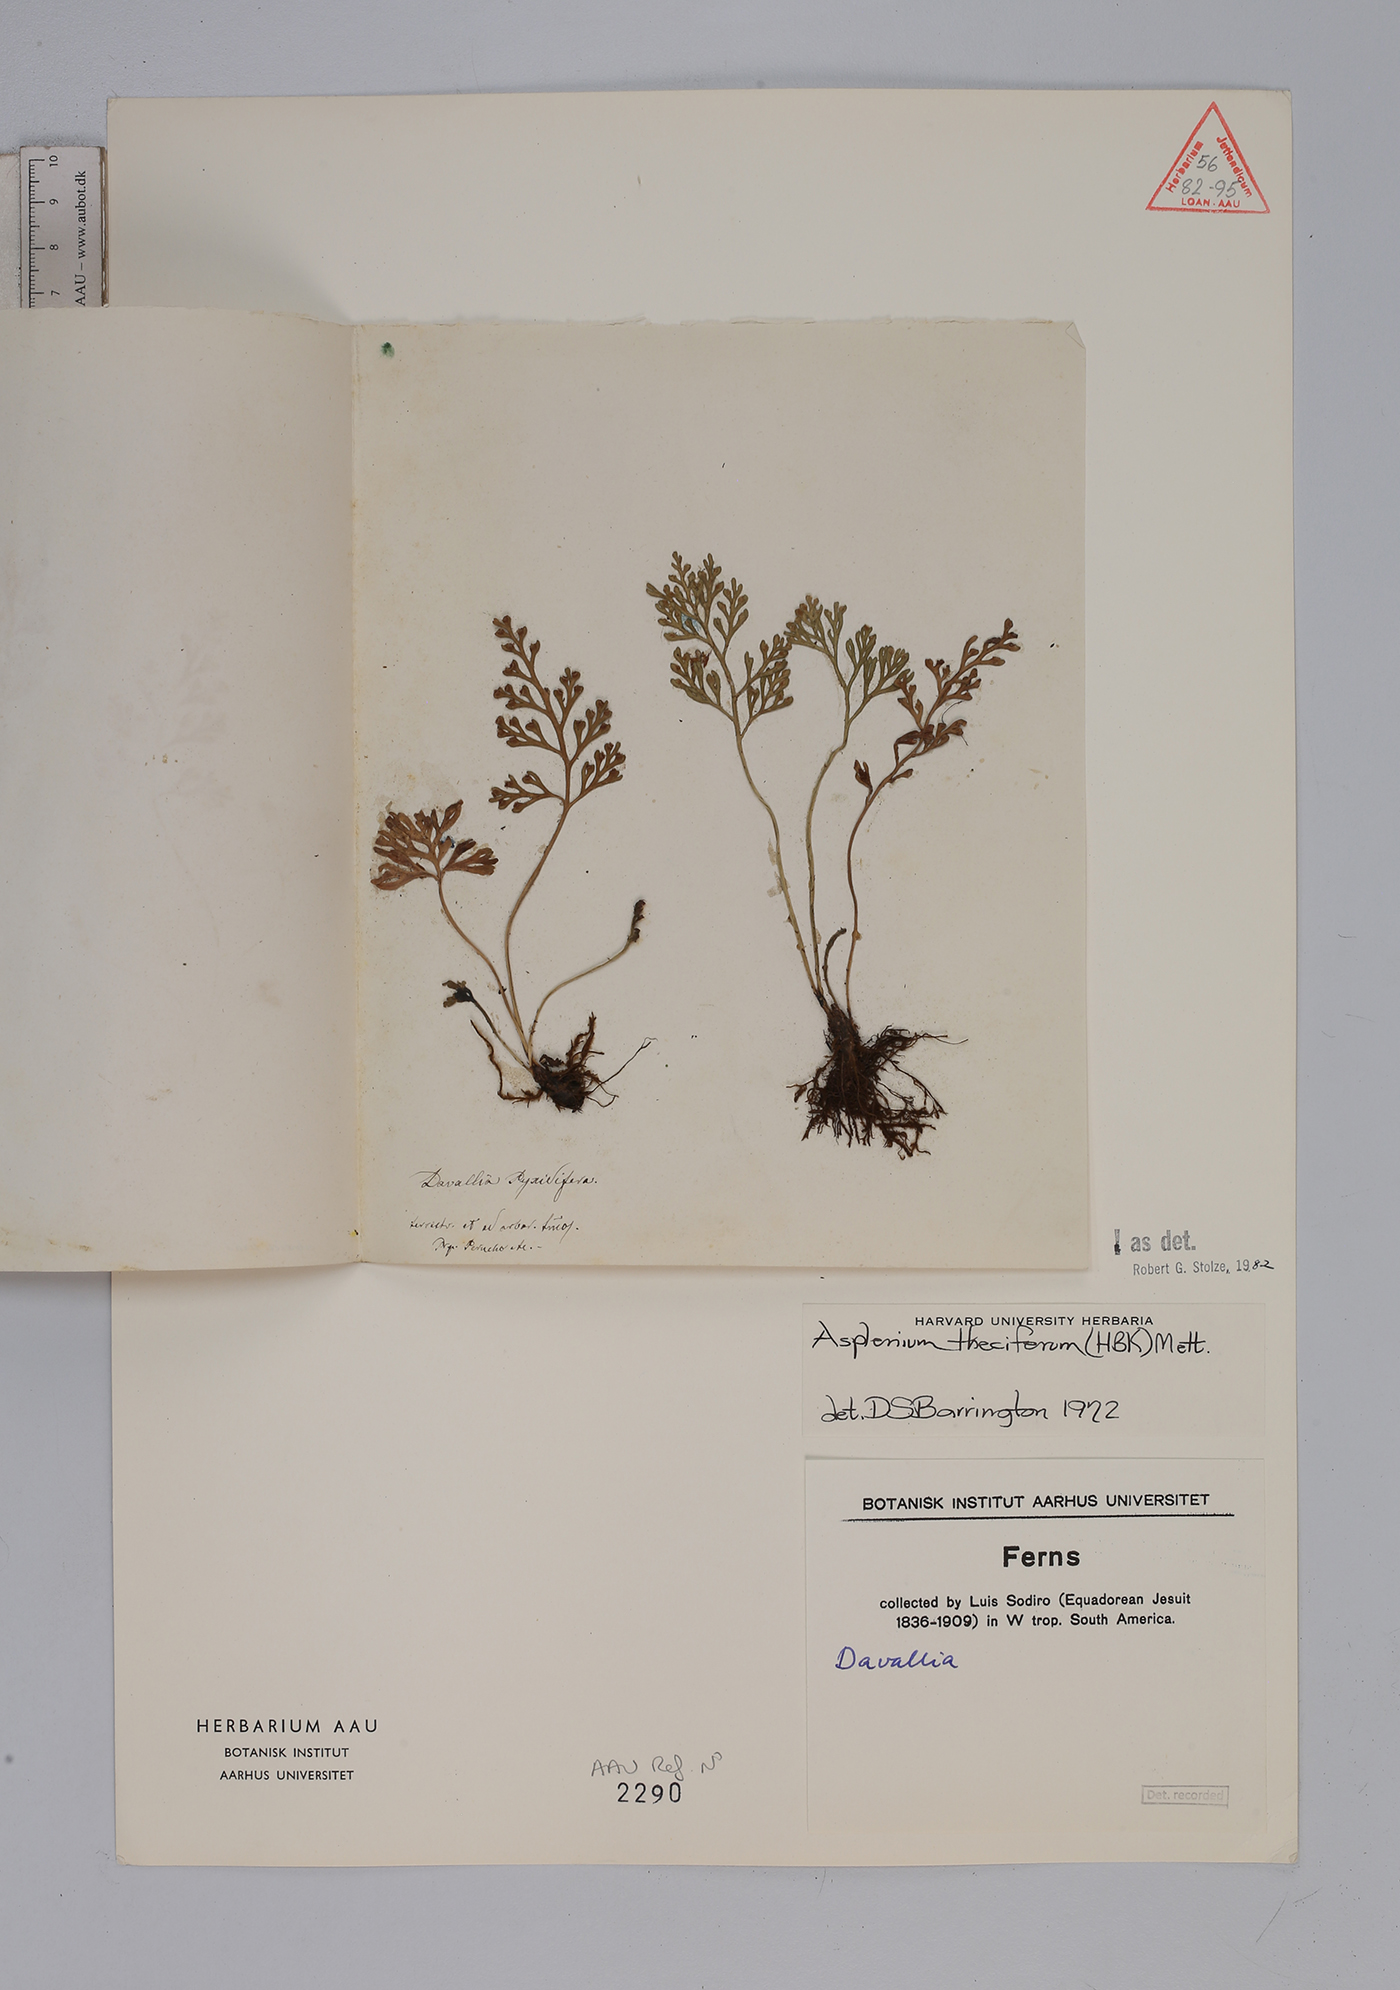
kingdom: Plantae
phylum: Tracheophyta
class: Polypodiopsida
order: Polypodiales
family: Aspleniaceae
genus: Asplenium
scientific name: Asplenium theciferum
